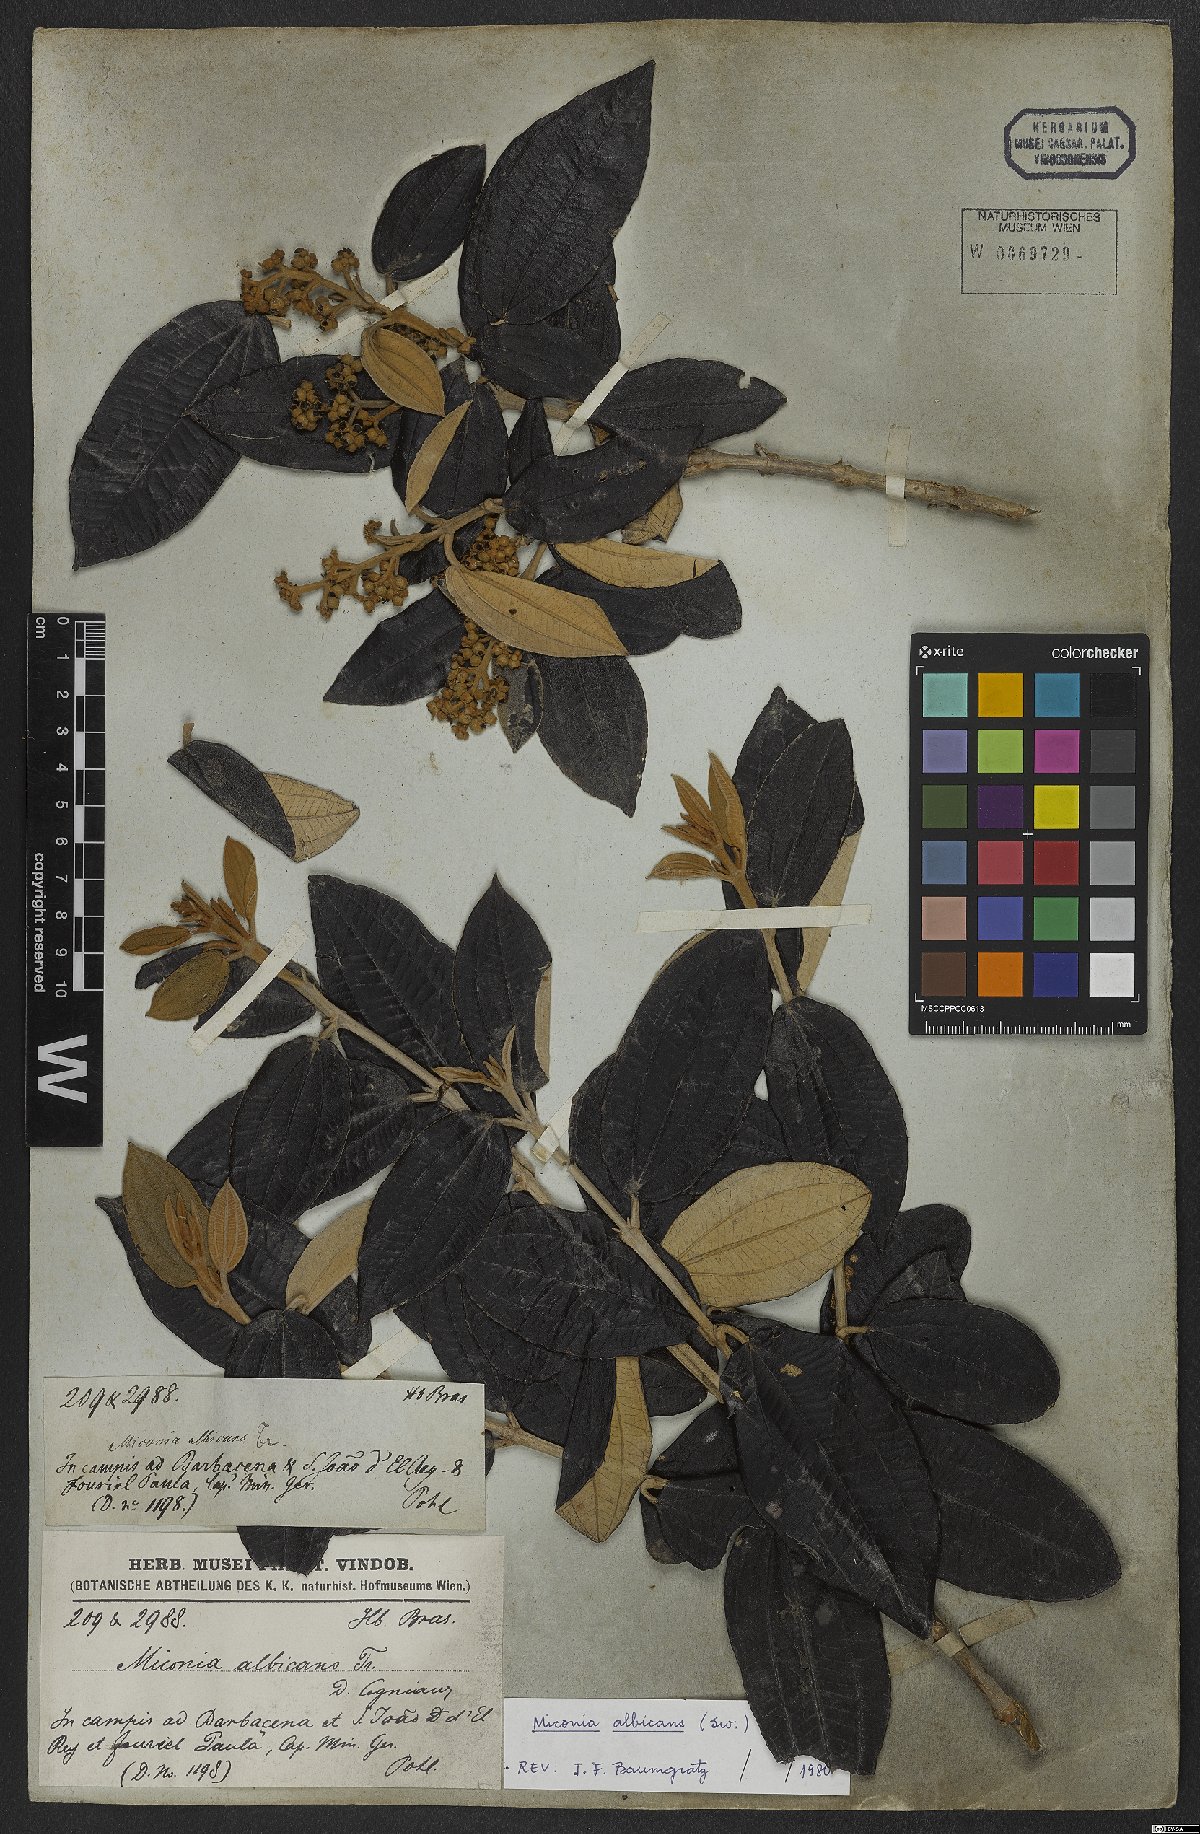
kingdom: Plantae
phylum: Tracheophyta
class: Magnoliopsida
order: Myrtales
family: Melastomataceae
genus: Miconia
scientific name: Miconia albicans
